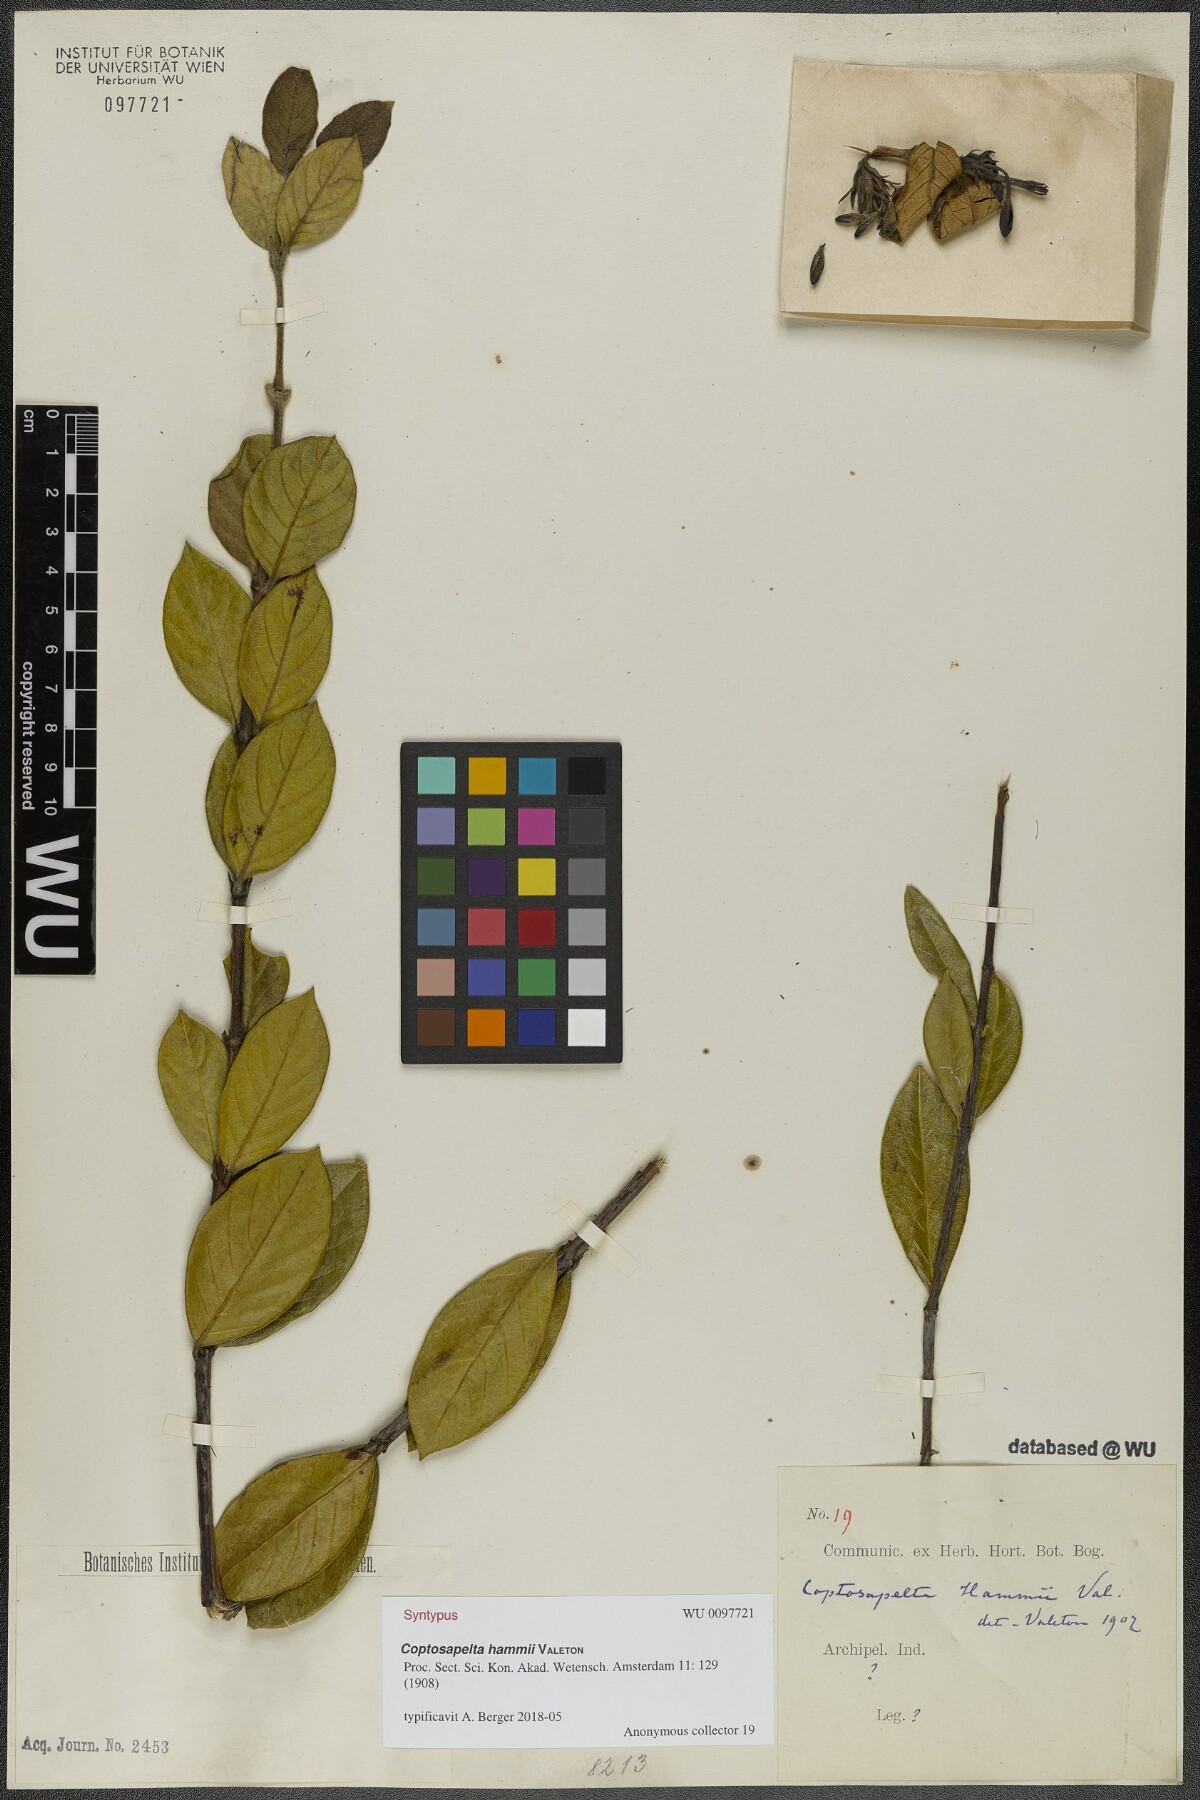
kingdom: Plantae
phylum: Tracheophyta
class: Magnoliopsida
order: Gentianales
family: Rubiaceae
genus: Coptosapelta
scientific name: Coptosapelta hammii
